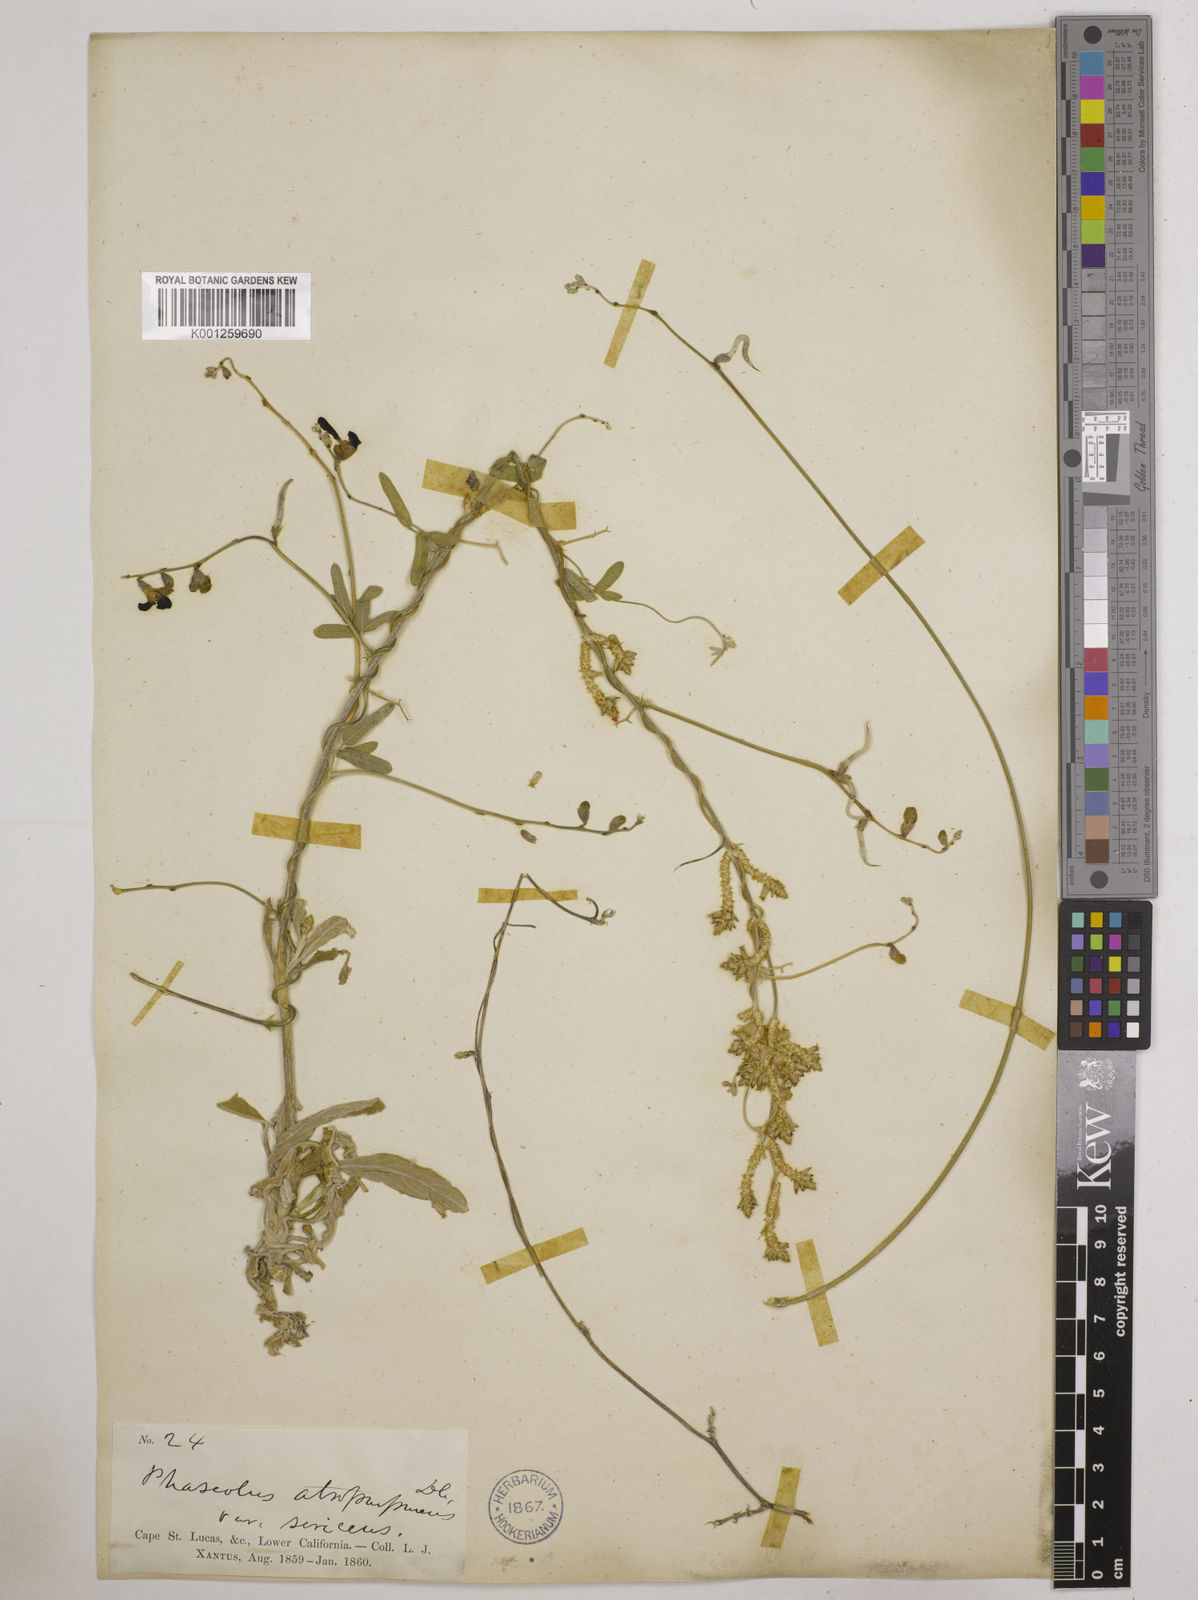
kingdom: Plantae
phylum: Tracheophyta
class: Magnoliopsida
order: Fabales
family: Fabaceae
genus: Macroptilium
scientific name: Macroptilium atropurpureum
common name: Purple bushbean
